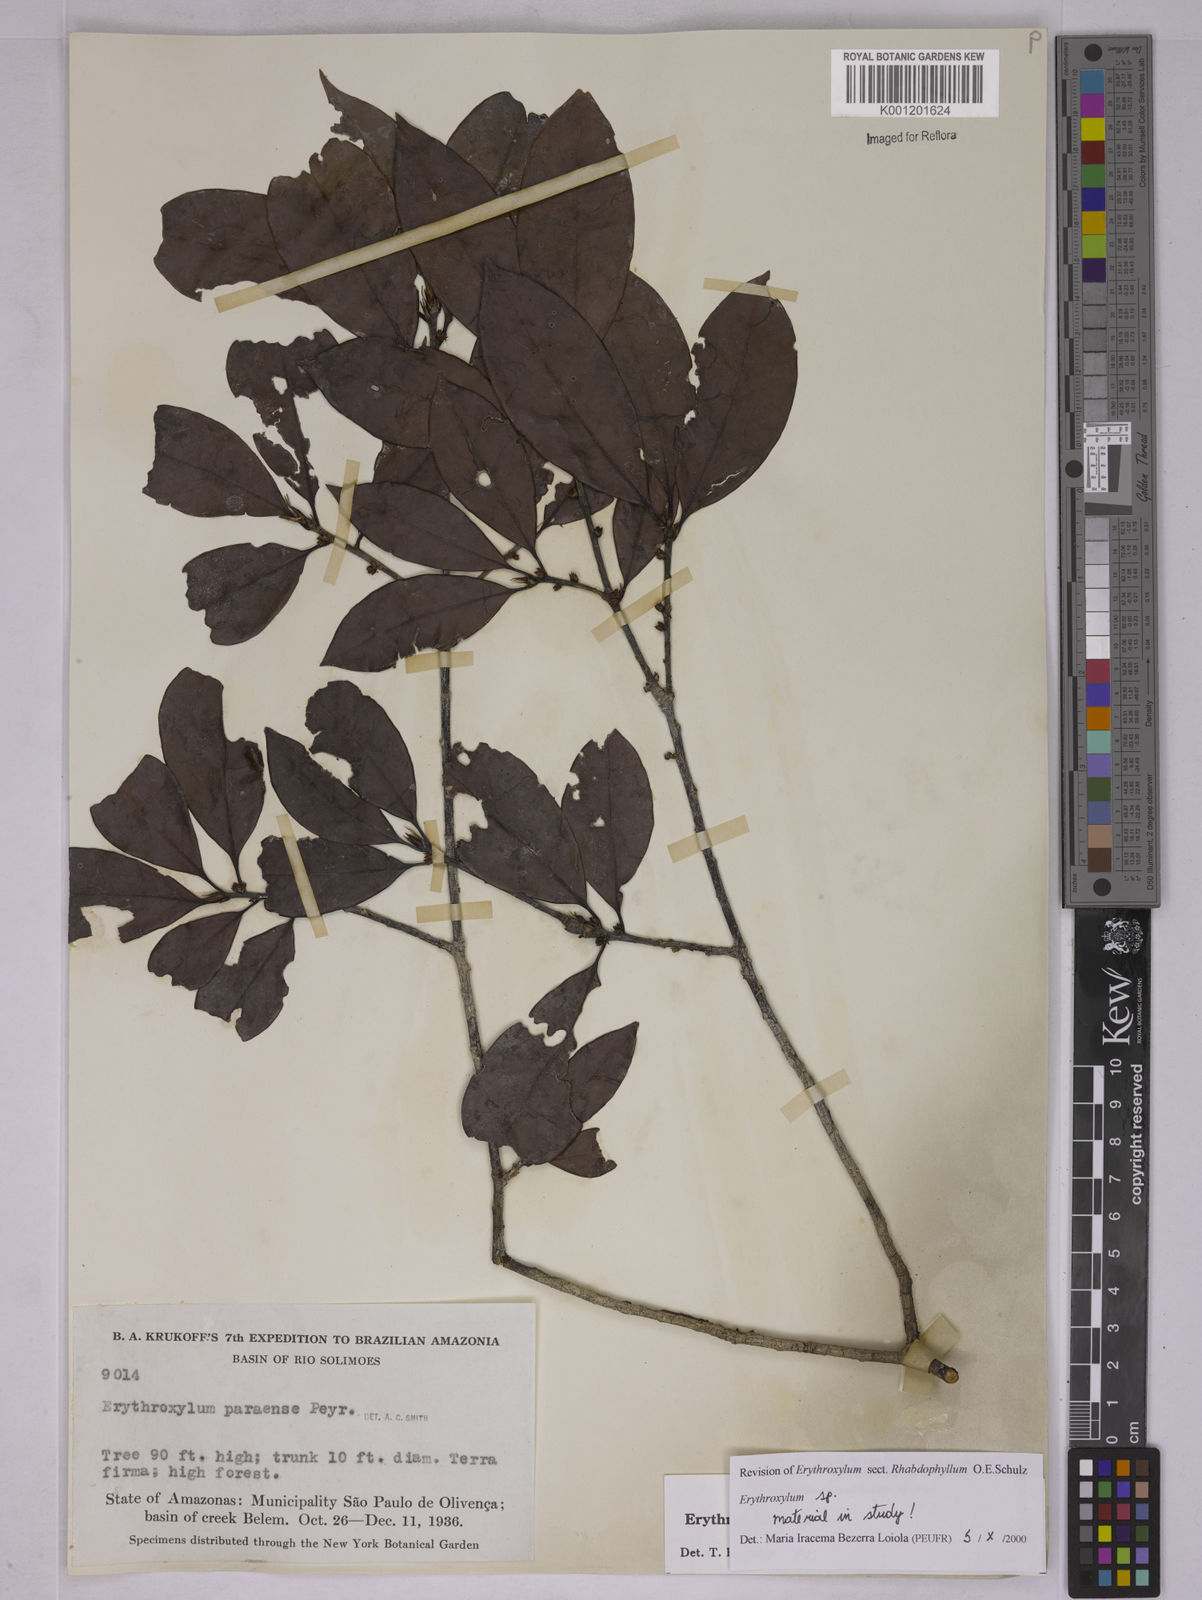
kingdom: Plantae
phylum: Tracheophyta
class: Magnoliopsida
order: Malpighiales
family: Erythroxylaceae
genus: Erythroxylum
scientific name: Erythroxylum
